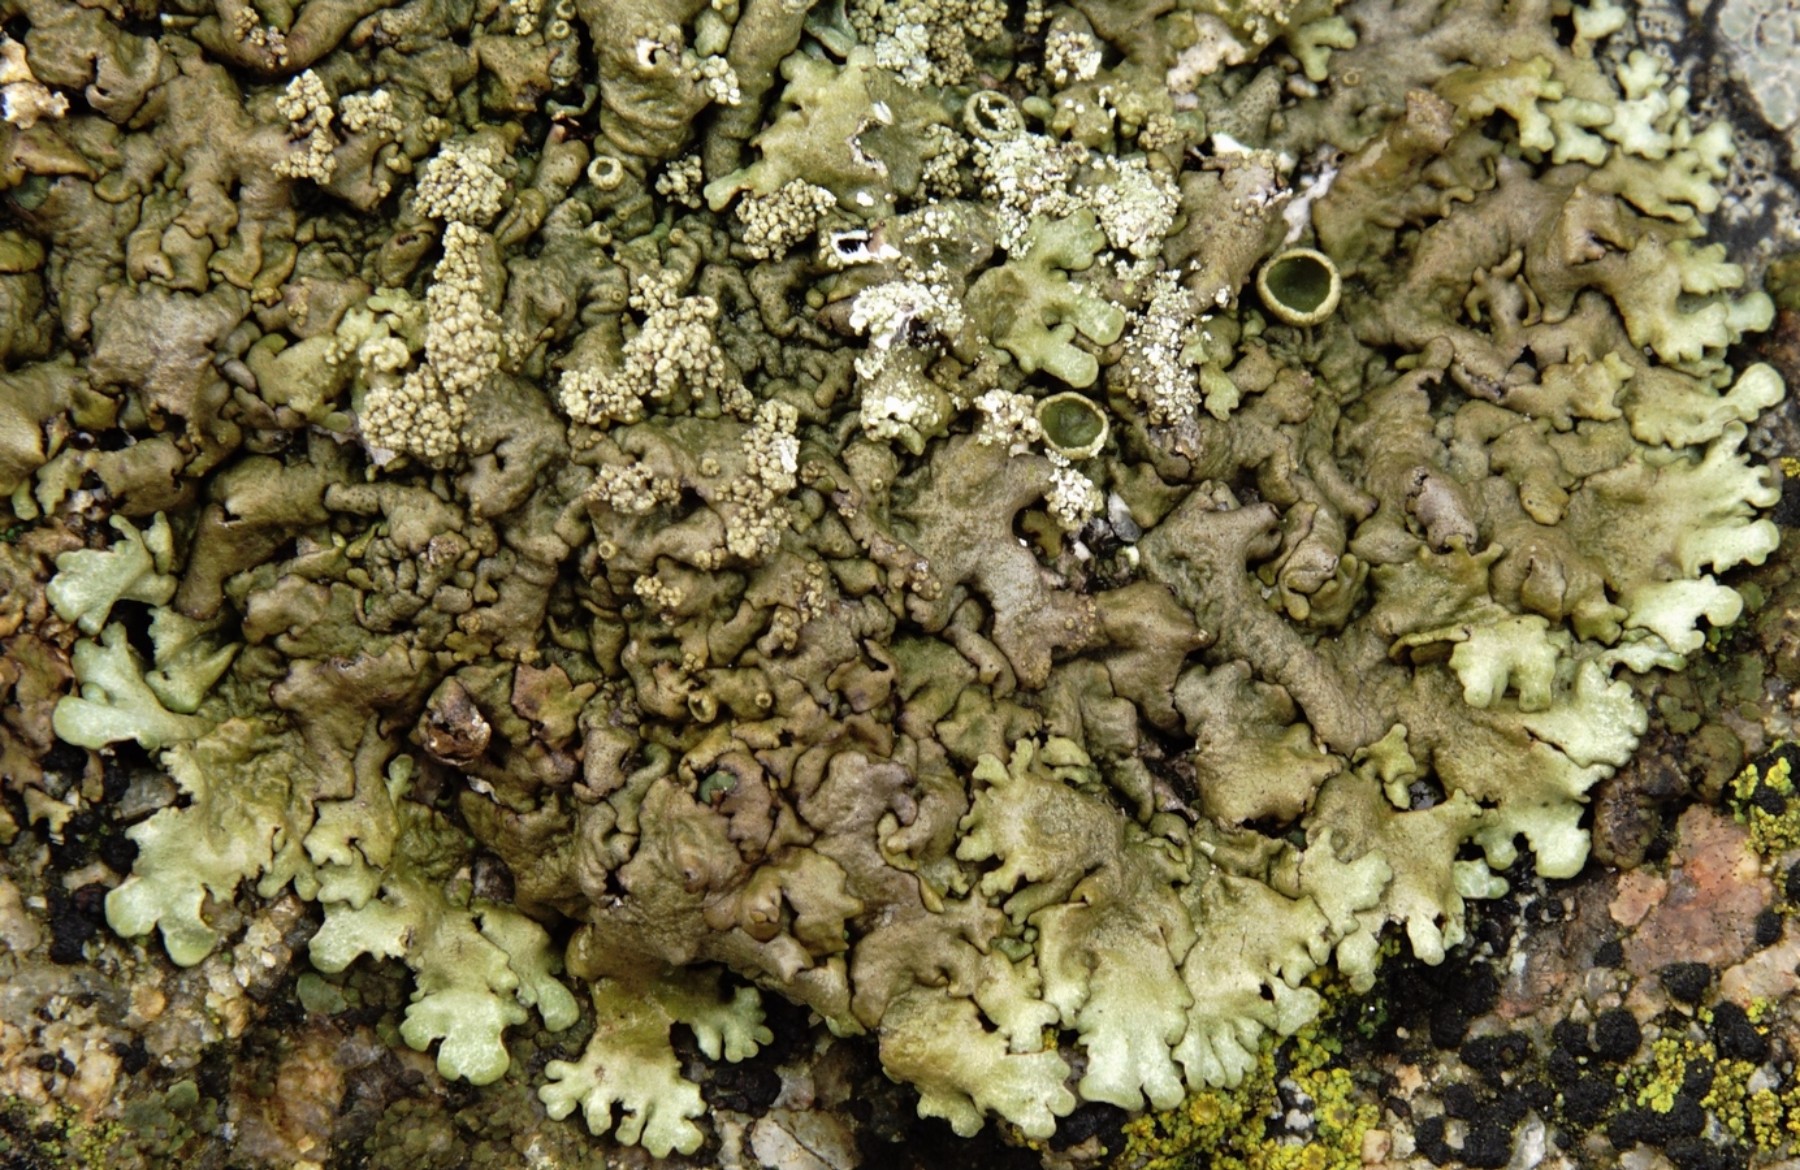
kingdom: Fungi
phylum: Ascomycota
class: Lecanoromycetes
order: Lecanorales
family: Parmeliaceae
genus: Xanthoparmelia
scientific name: Xanthoparmelia loxodes
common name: knudret skållav
